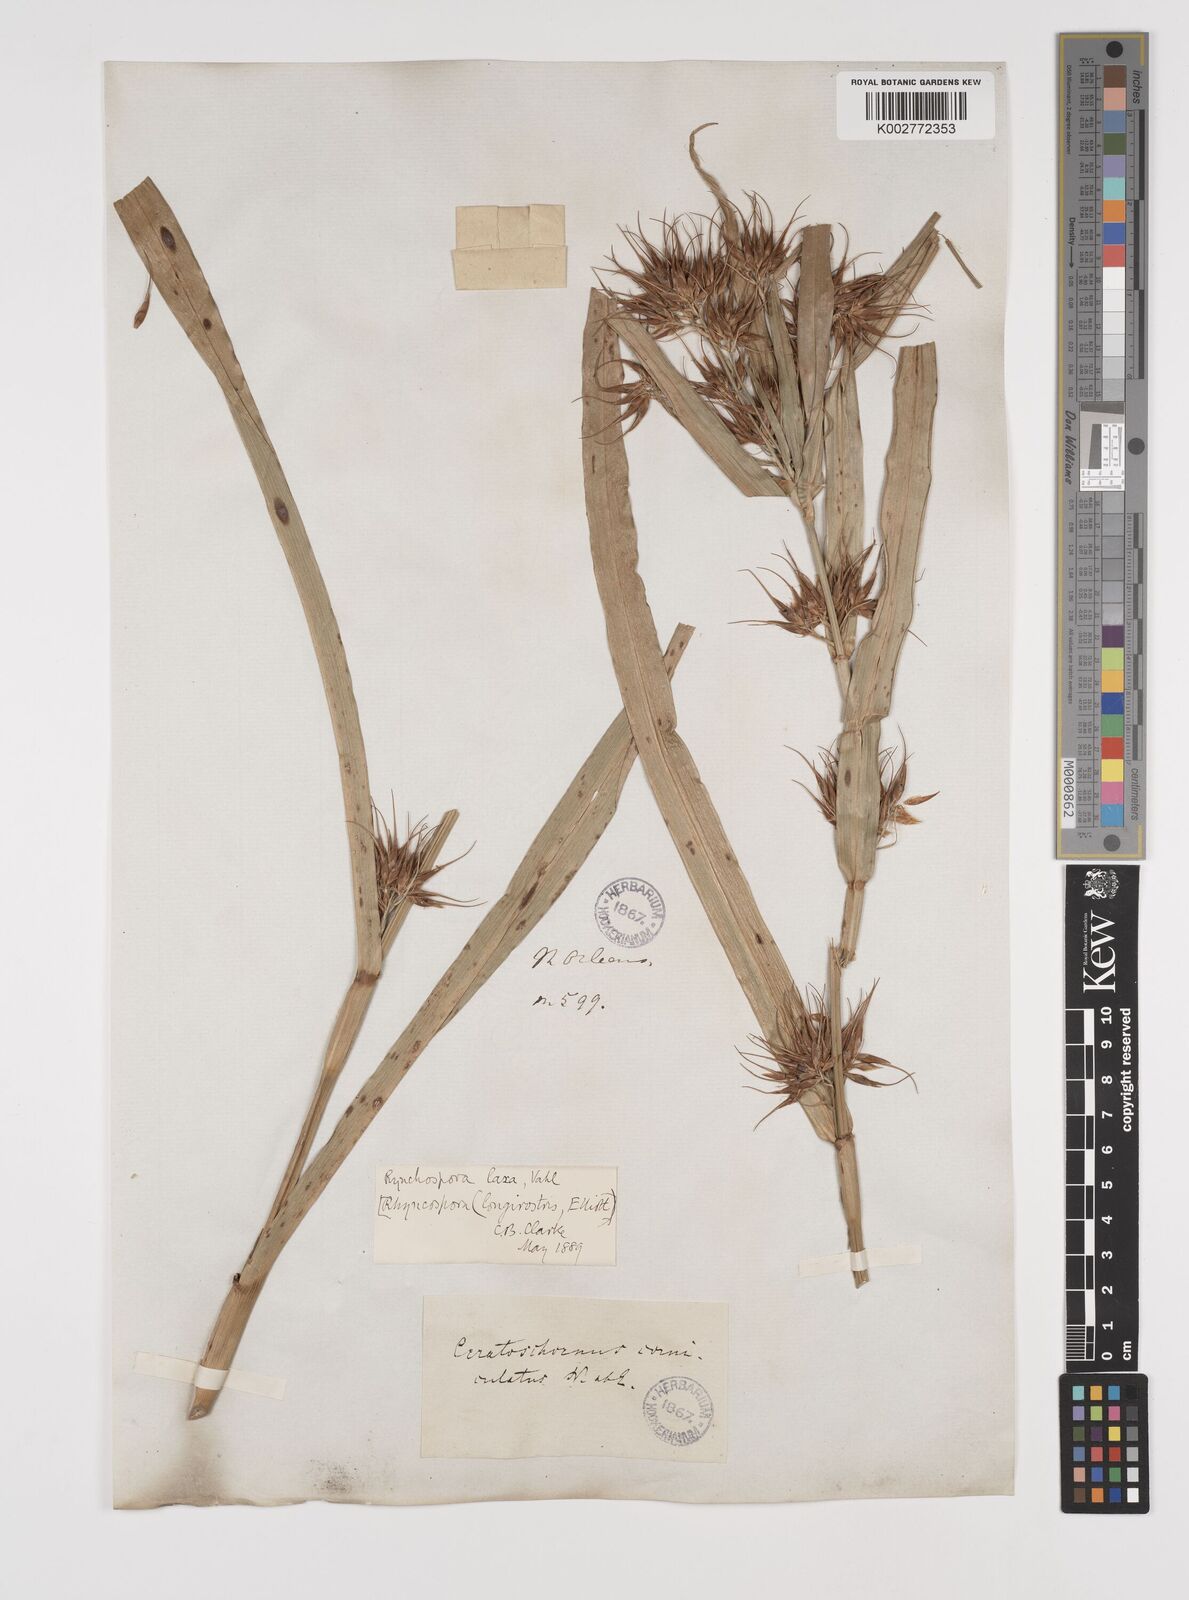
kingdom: Plantae
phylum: Tracheophyta
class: Liliopsida
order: Poales
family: Cyperaceae
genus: Rhynchospora
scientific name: Rhynchospora corniculata
